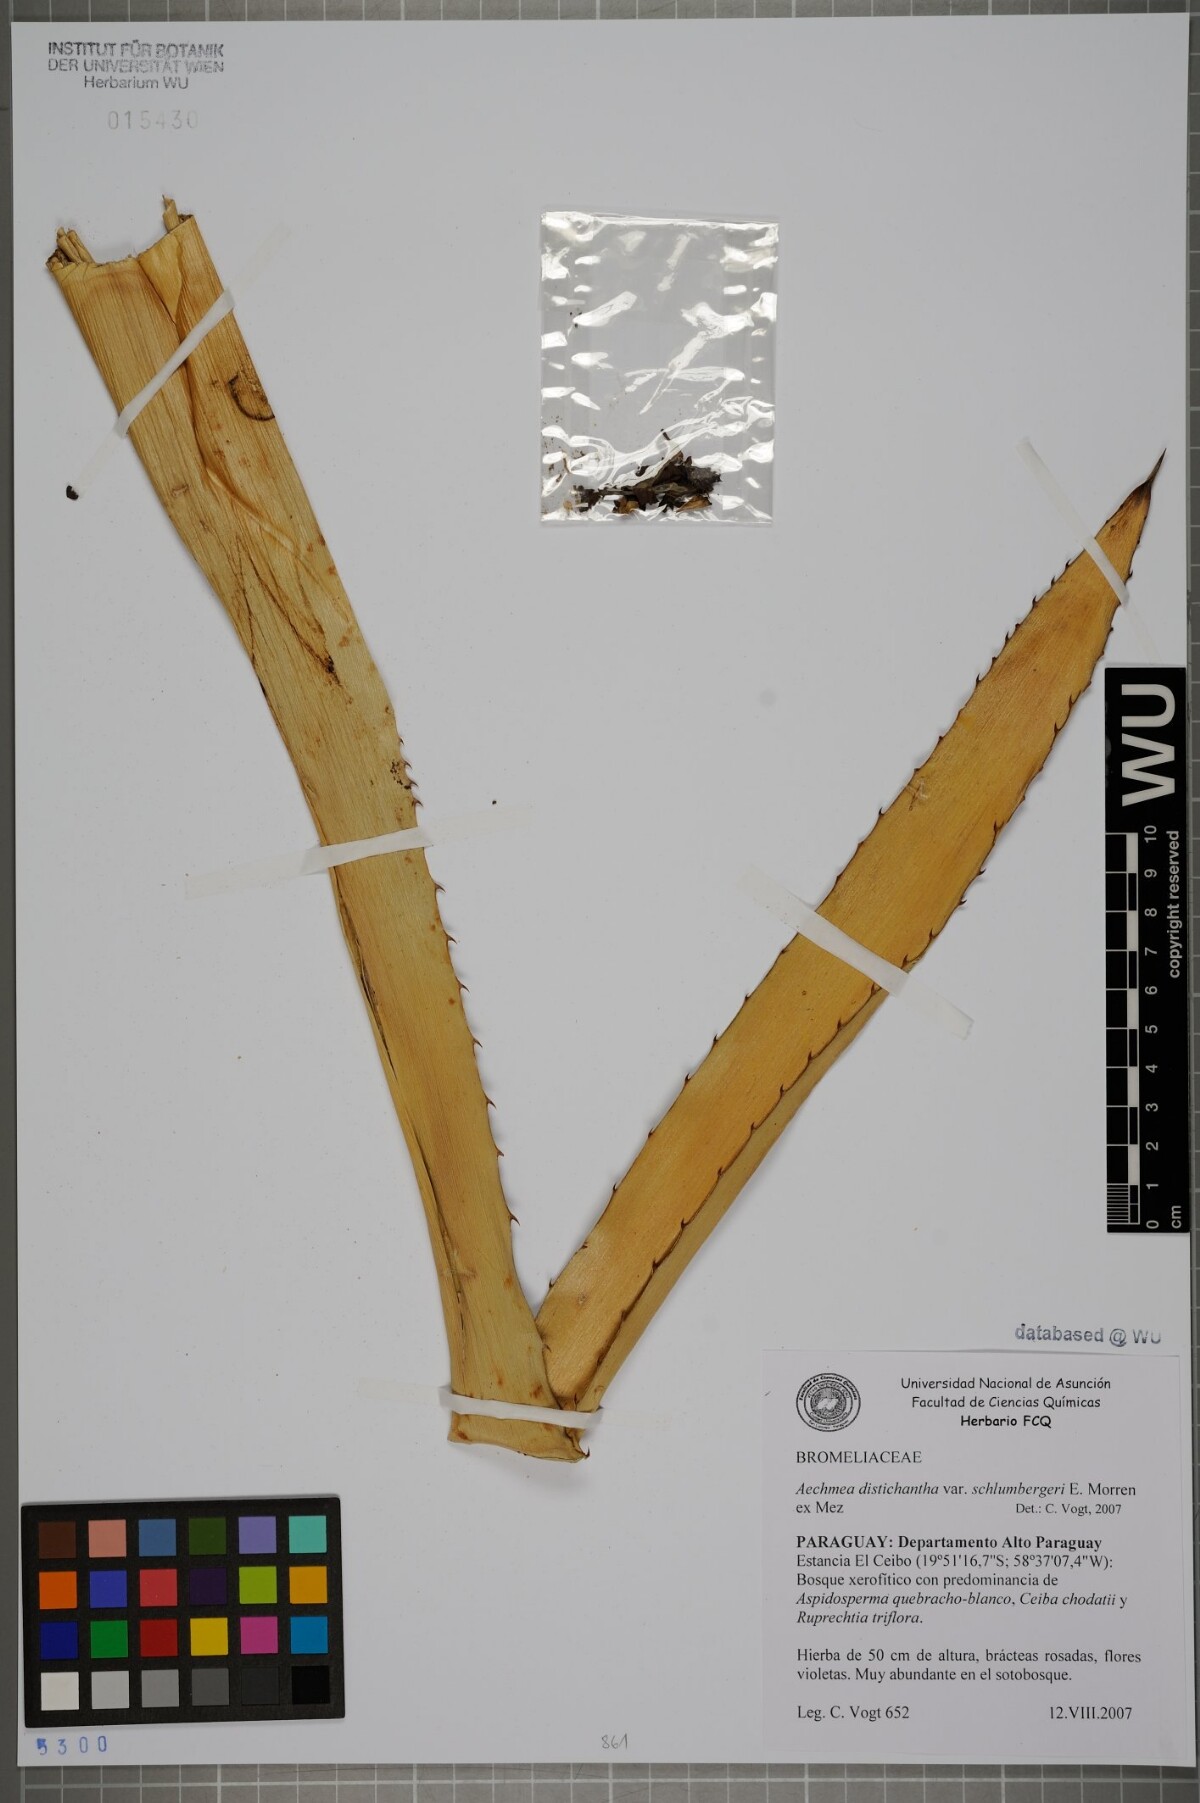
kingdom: Plantae
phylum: Tracheophyta
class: Liliopsida
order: Poales
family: Bromeliaceae
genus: Aechmea
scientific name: Aechmea distichantha
